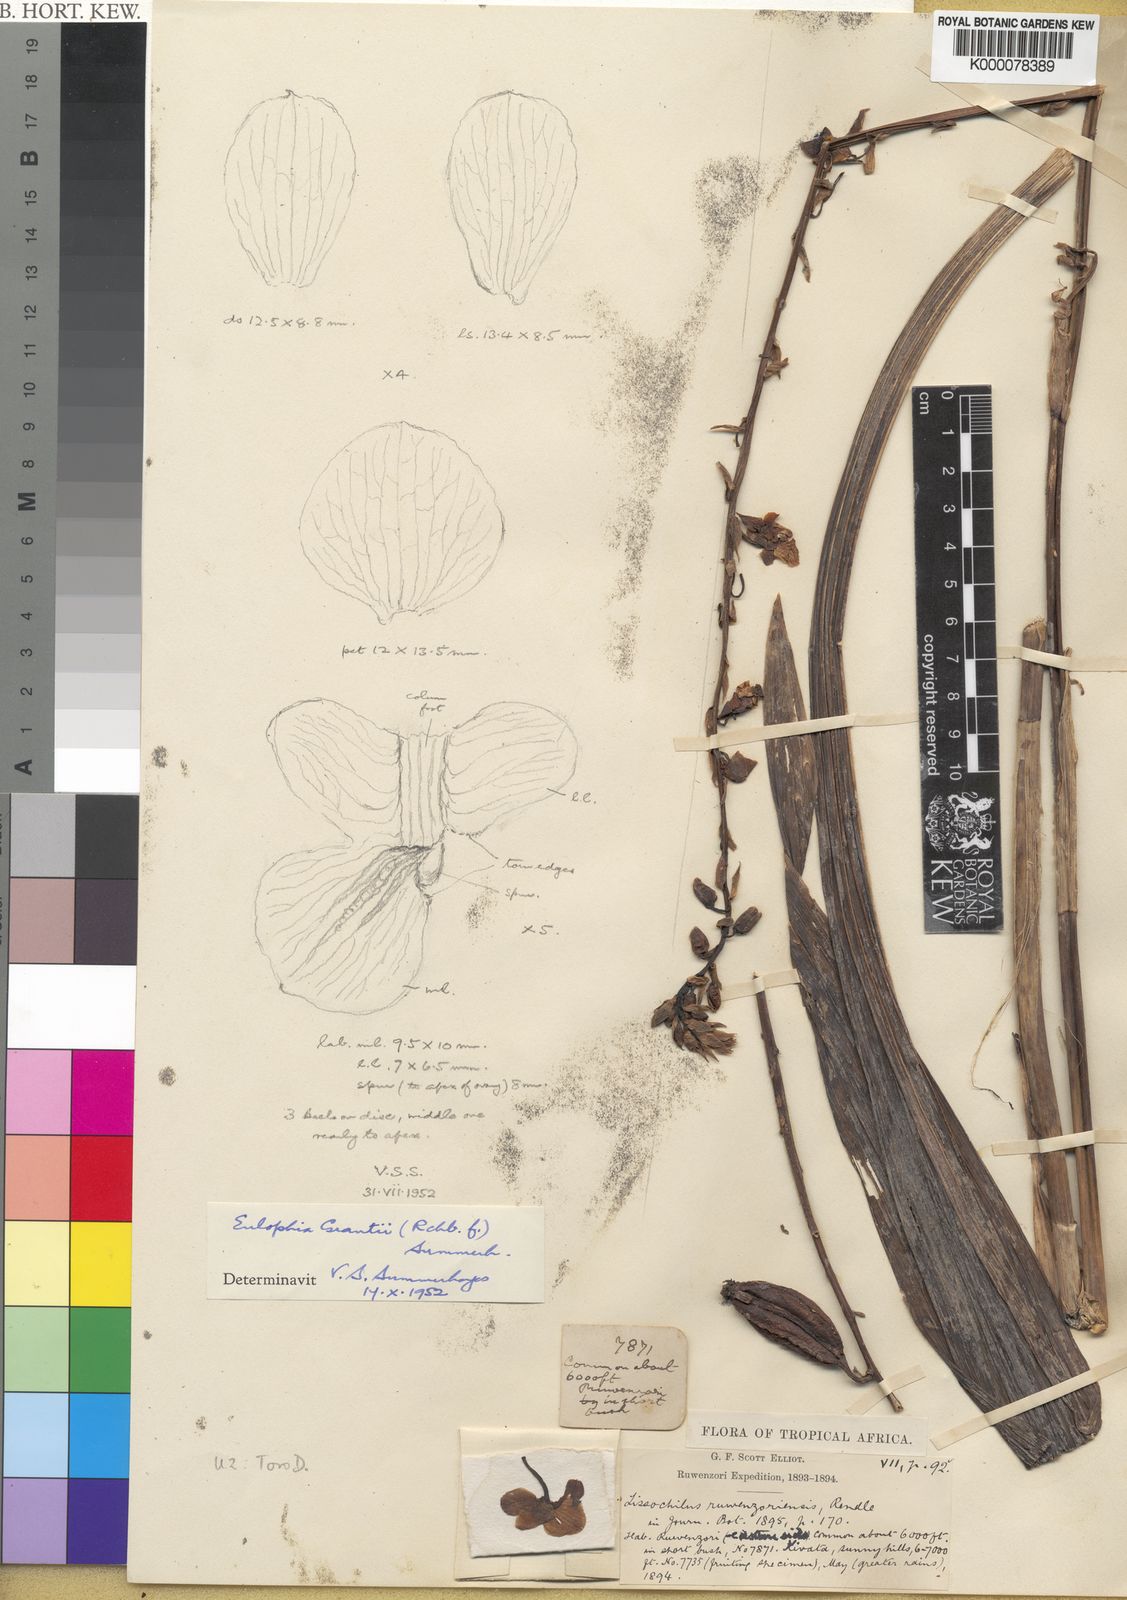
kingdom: Plantae
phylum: Tracheophyta
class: Liliopsida
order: Asparagales
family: Orchidaceae
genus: Eulophia
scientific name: Eulophia streptopetala
